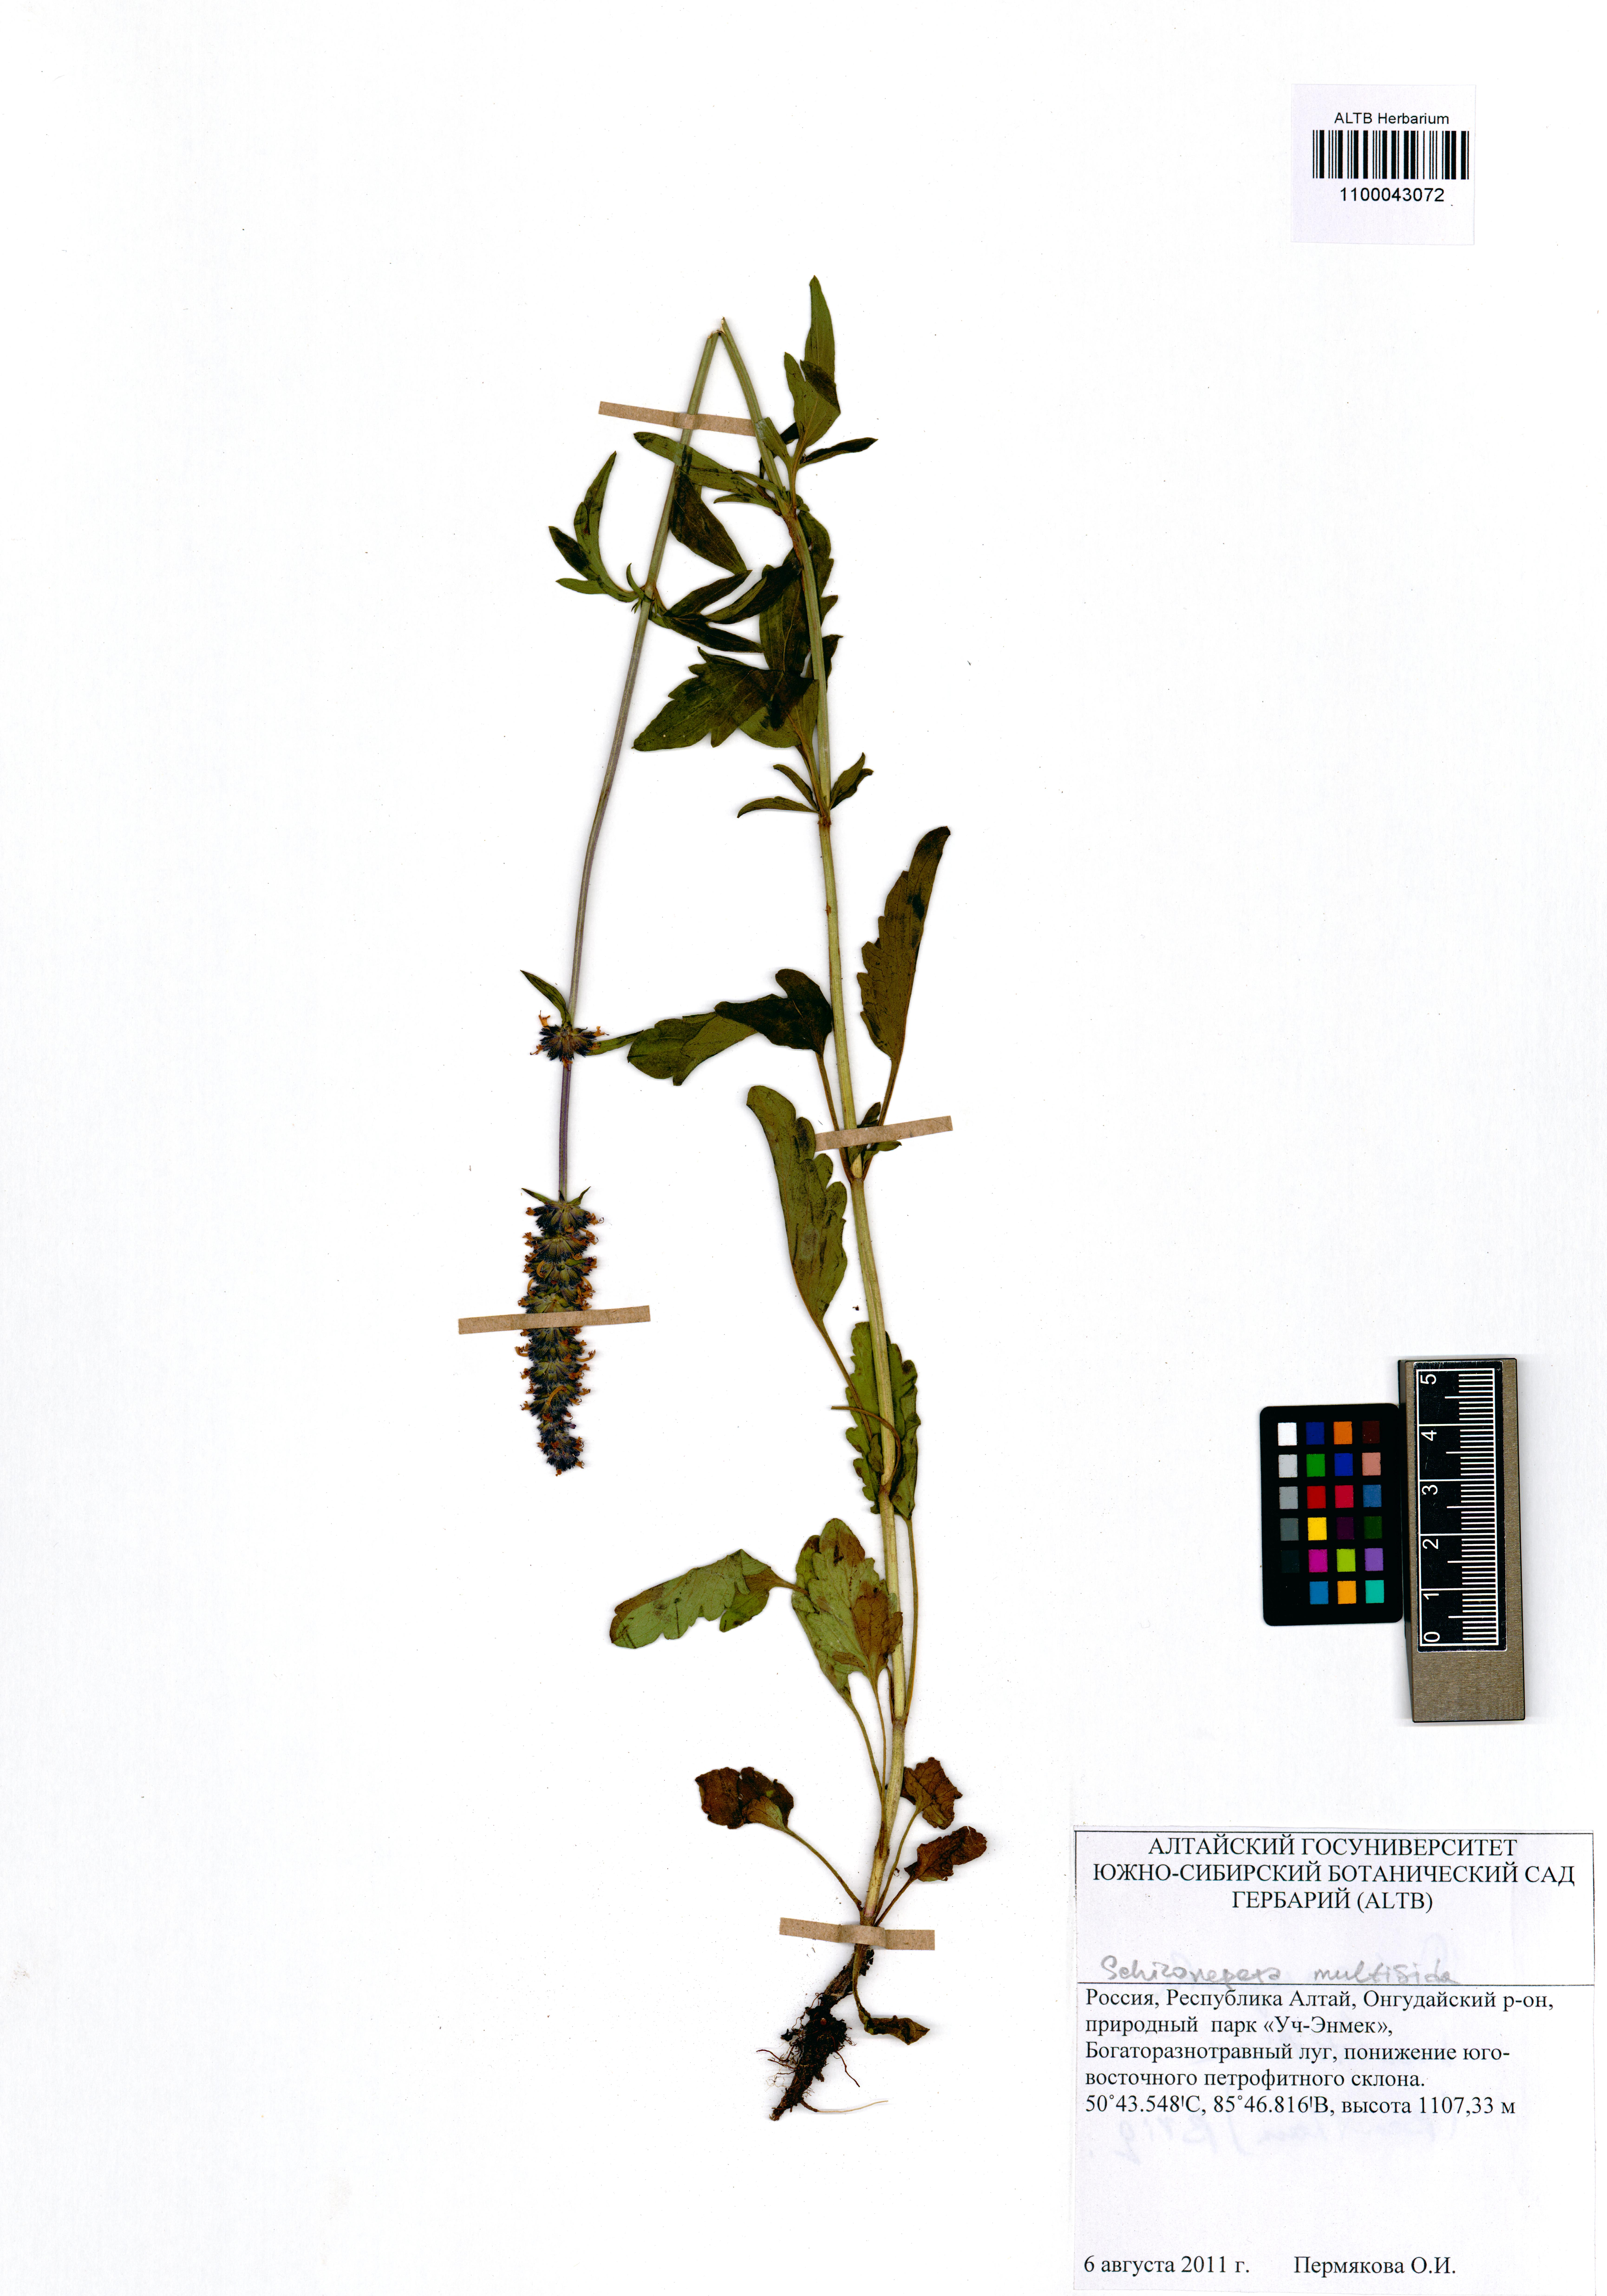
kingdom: Plantae
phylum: Tracheophyta
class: Magnoliopsida
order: Lamiales
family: Lamiaceae
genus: Nepeta
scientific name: Nepeta multifida
